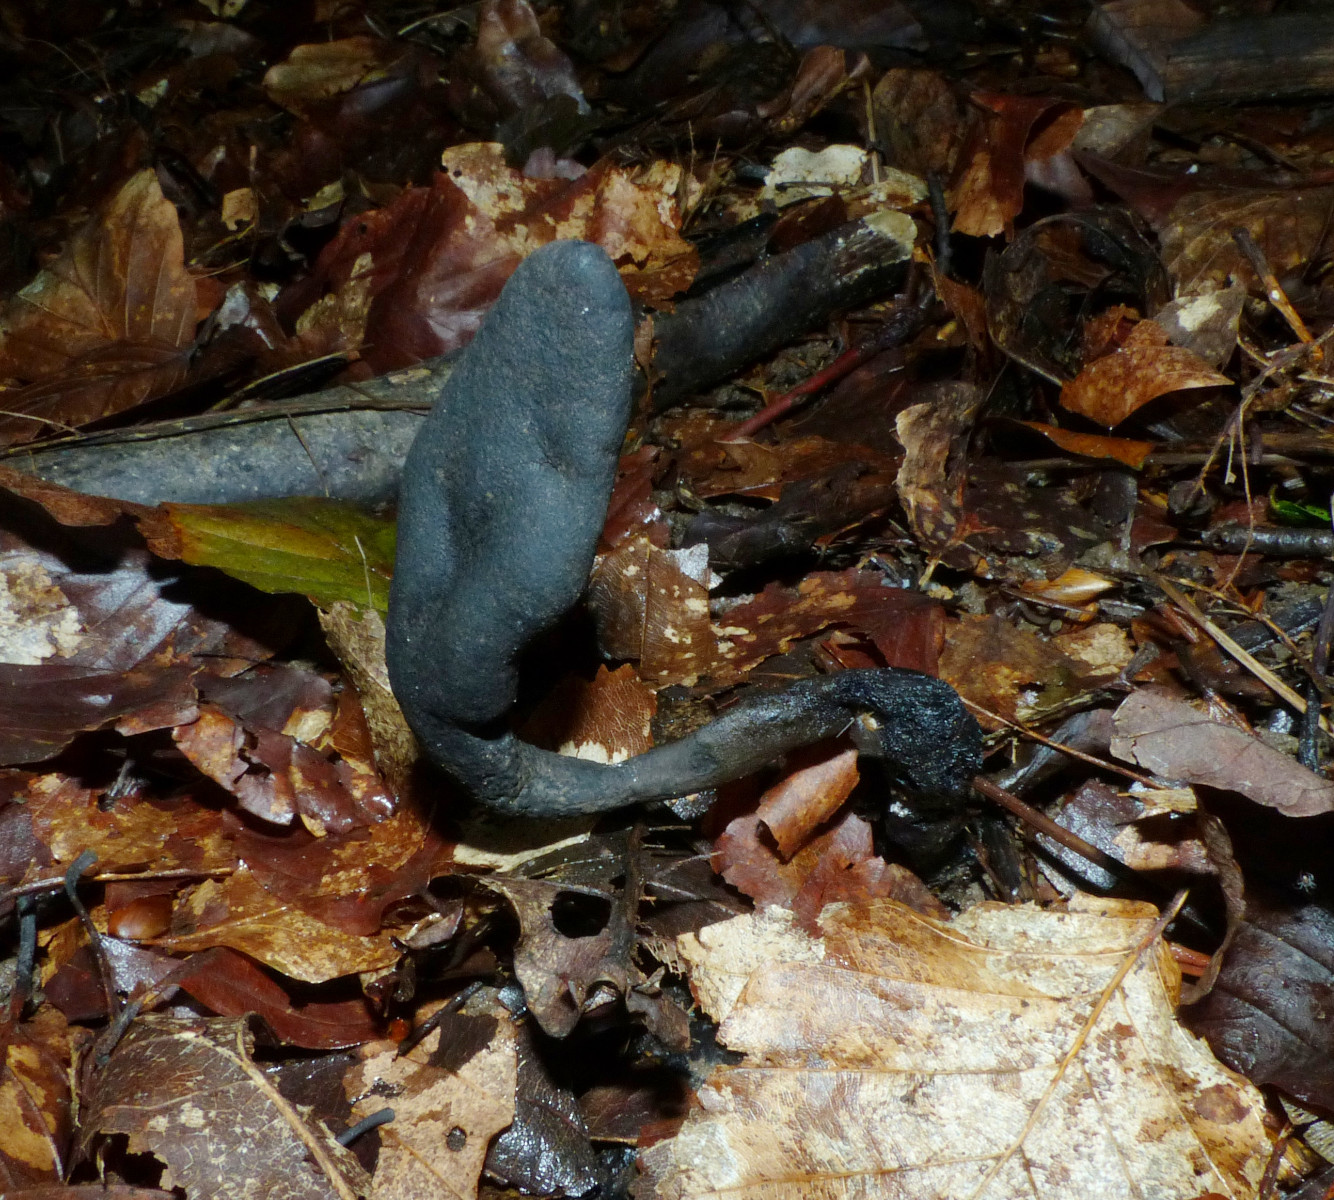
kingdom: Fungi
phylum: Ascomycota
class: Sordariomycetes
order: Xylariales
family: Xylariaceae
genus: Xylaria
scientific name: Xylaria longipes
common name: slank stødsvamp
